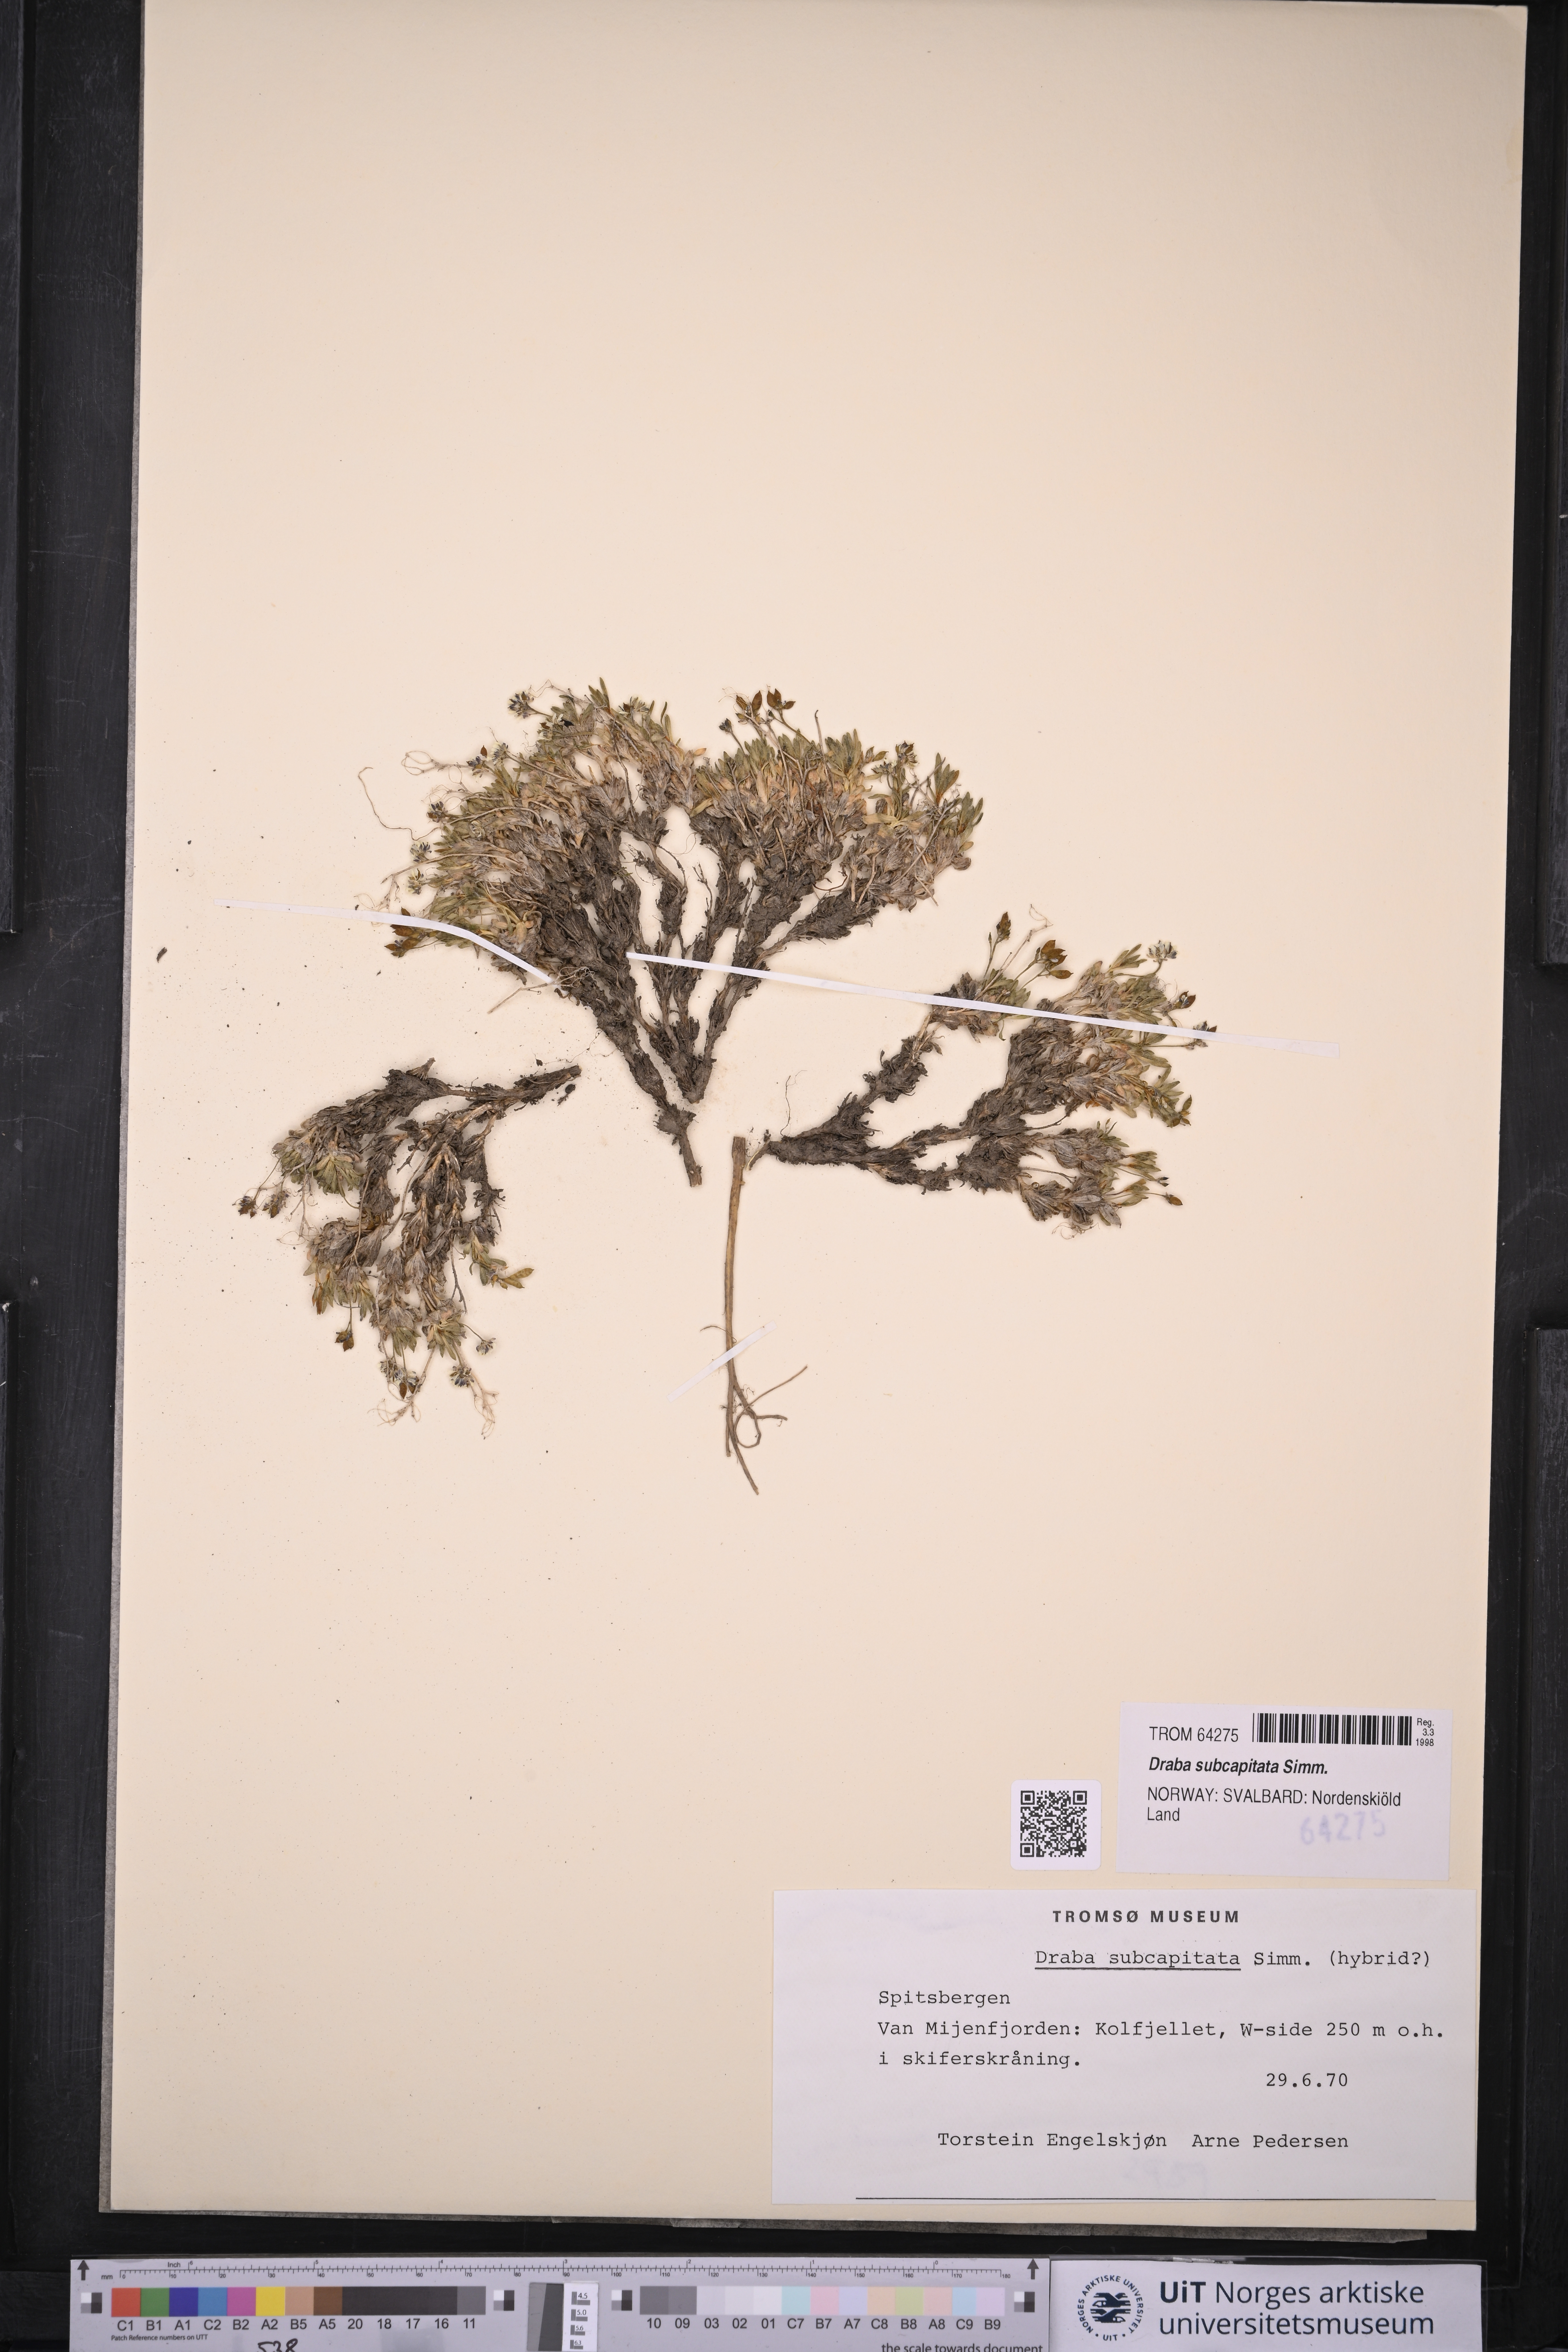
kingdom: Plantae
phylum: Tracheophyta
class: Magnoliopsida
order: Brassicales
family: Brassicaceae
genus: Draba
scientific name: Draba subcapitata
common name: Ellesmere island draba
